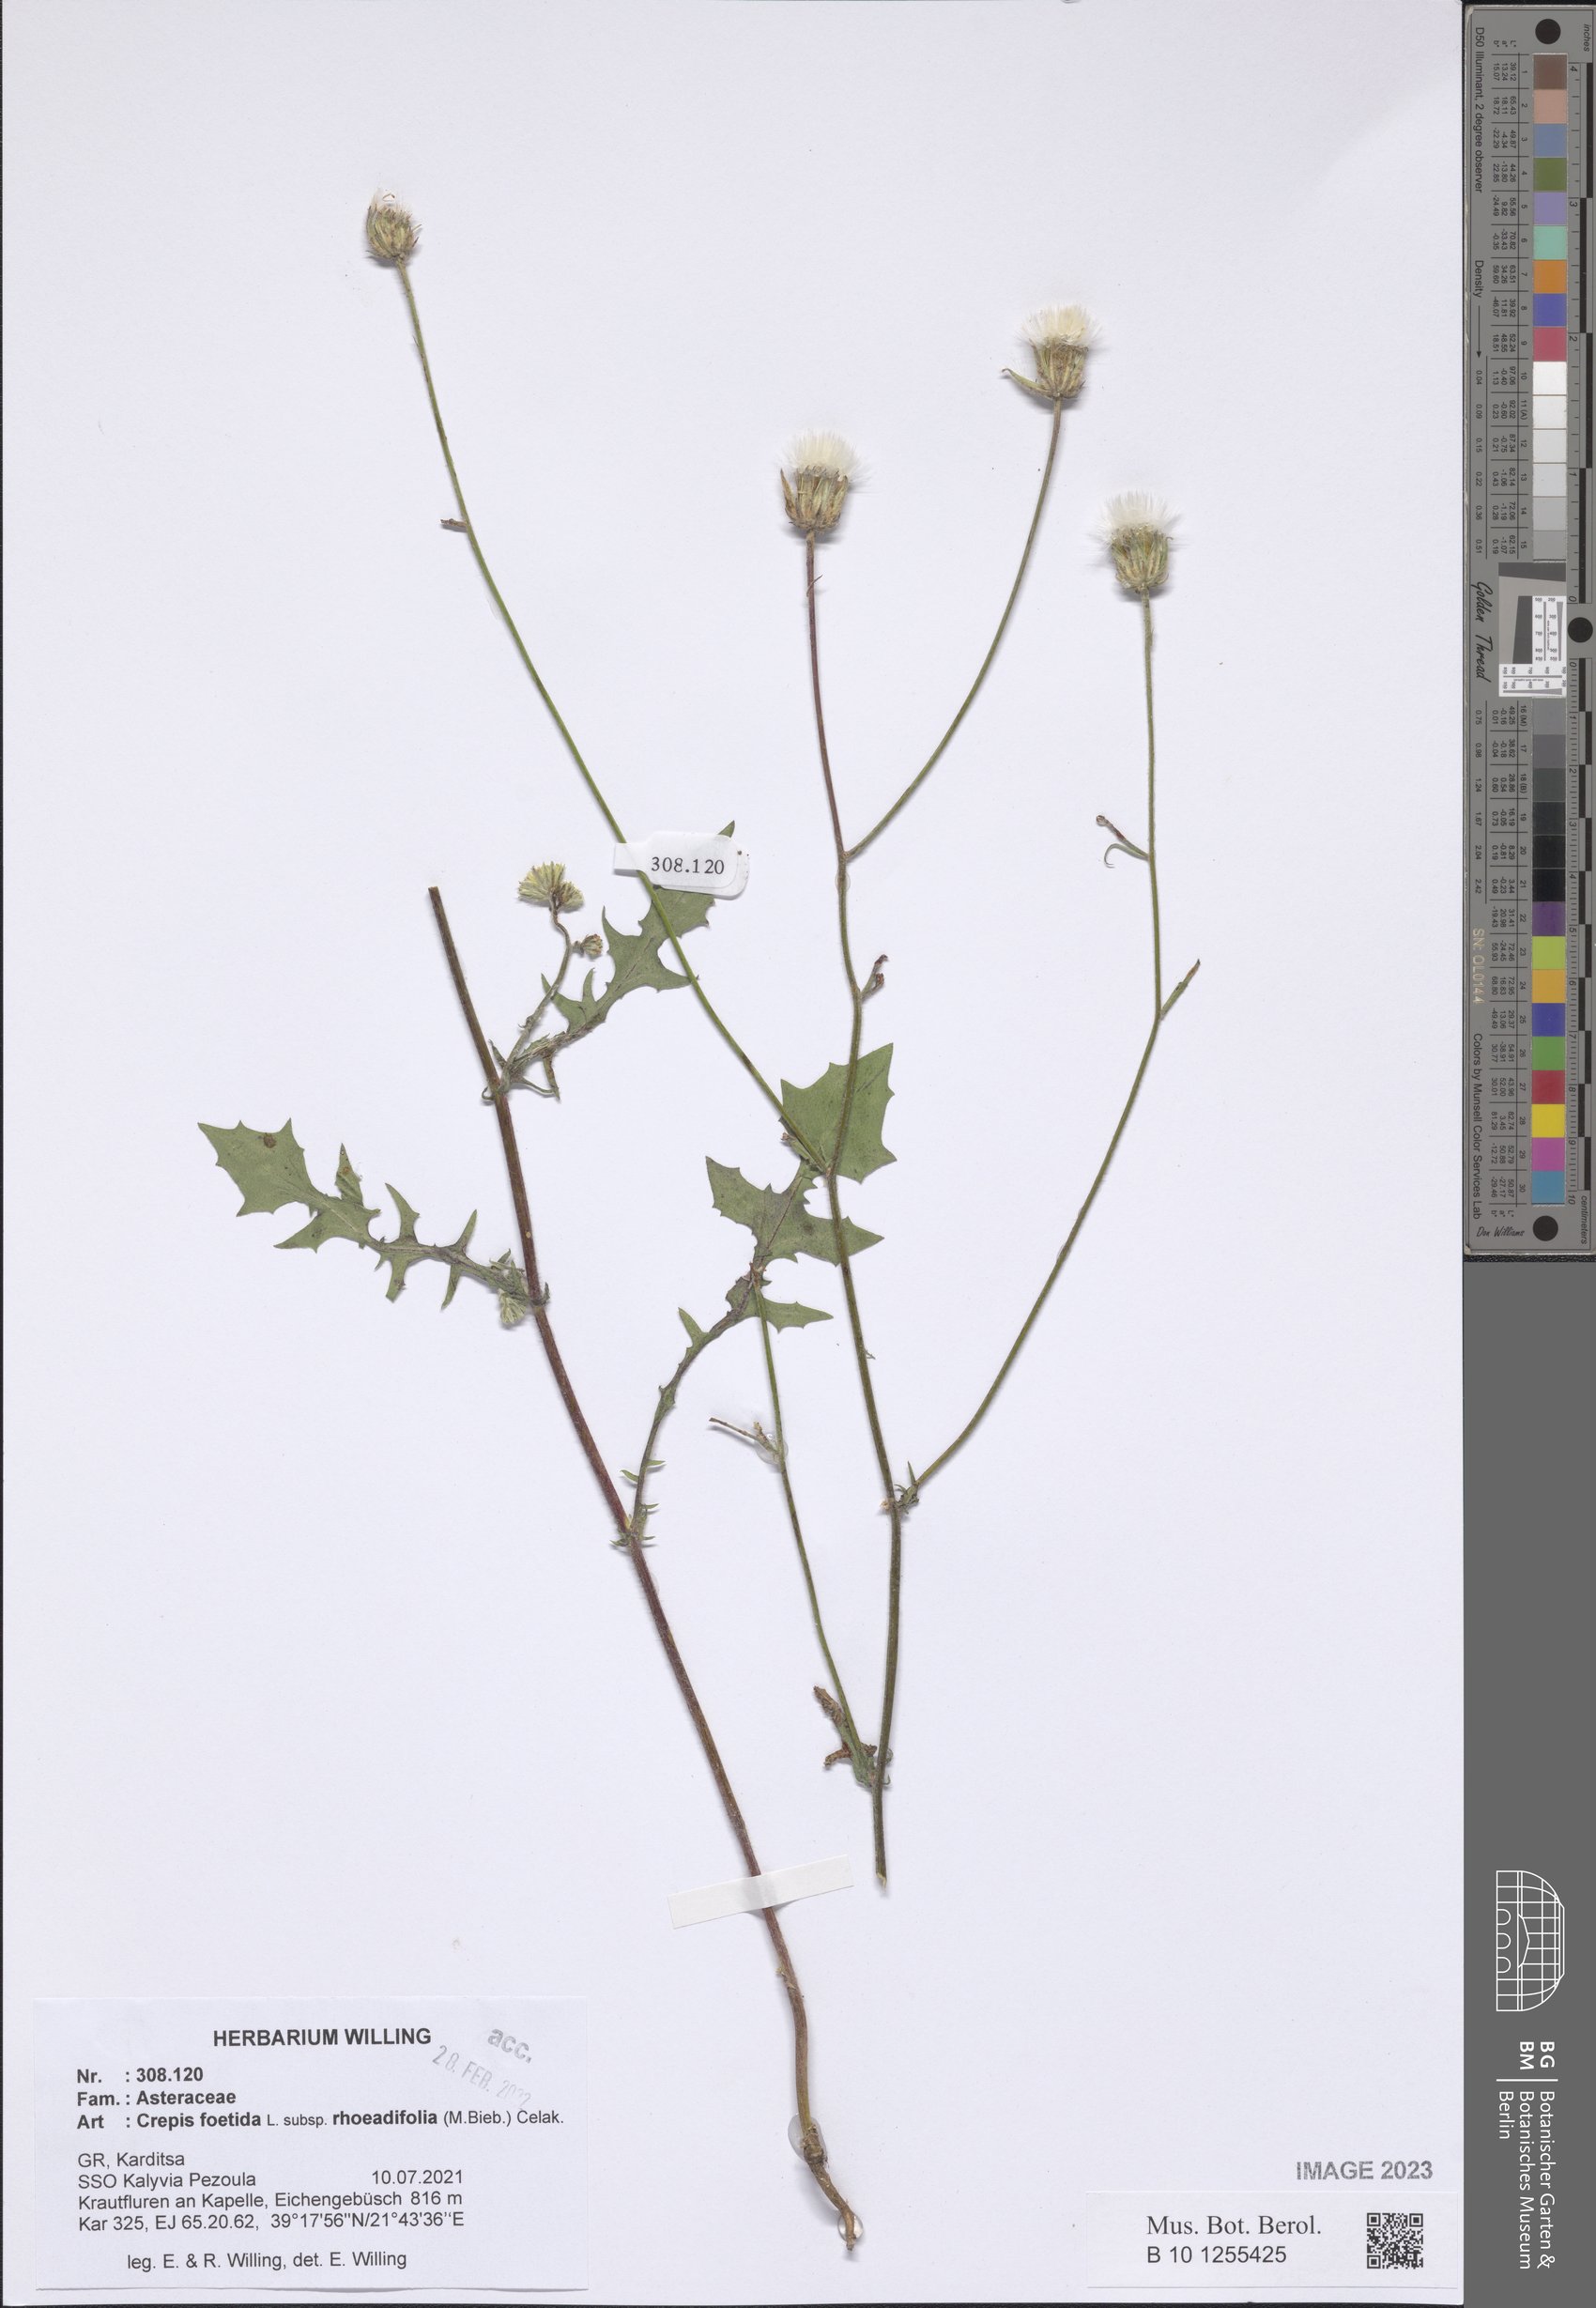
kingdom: Plantae
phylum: Tracheophyta
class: Magnoliopsida
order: Asterales
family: Asteraceae
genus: Crepis
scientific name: Crepis foetida
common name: Stinking hawk's-beard
